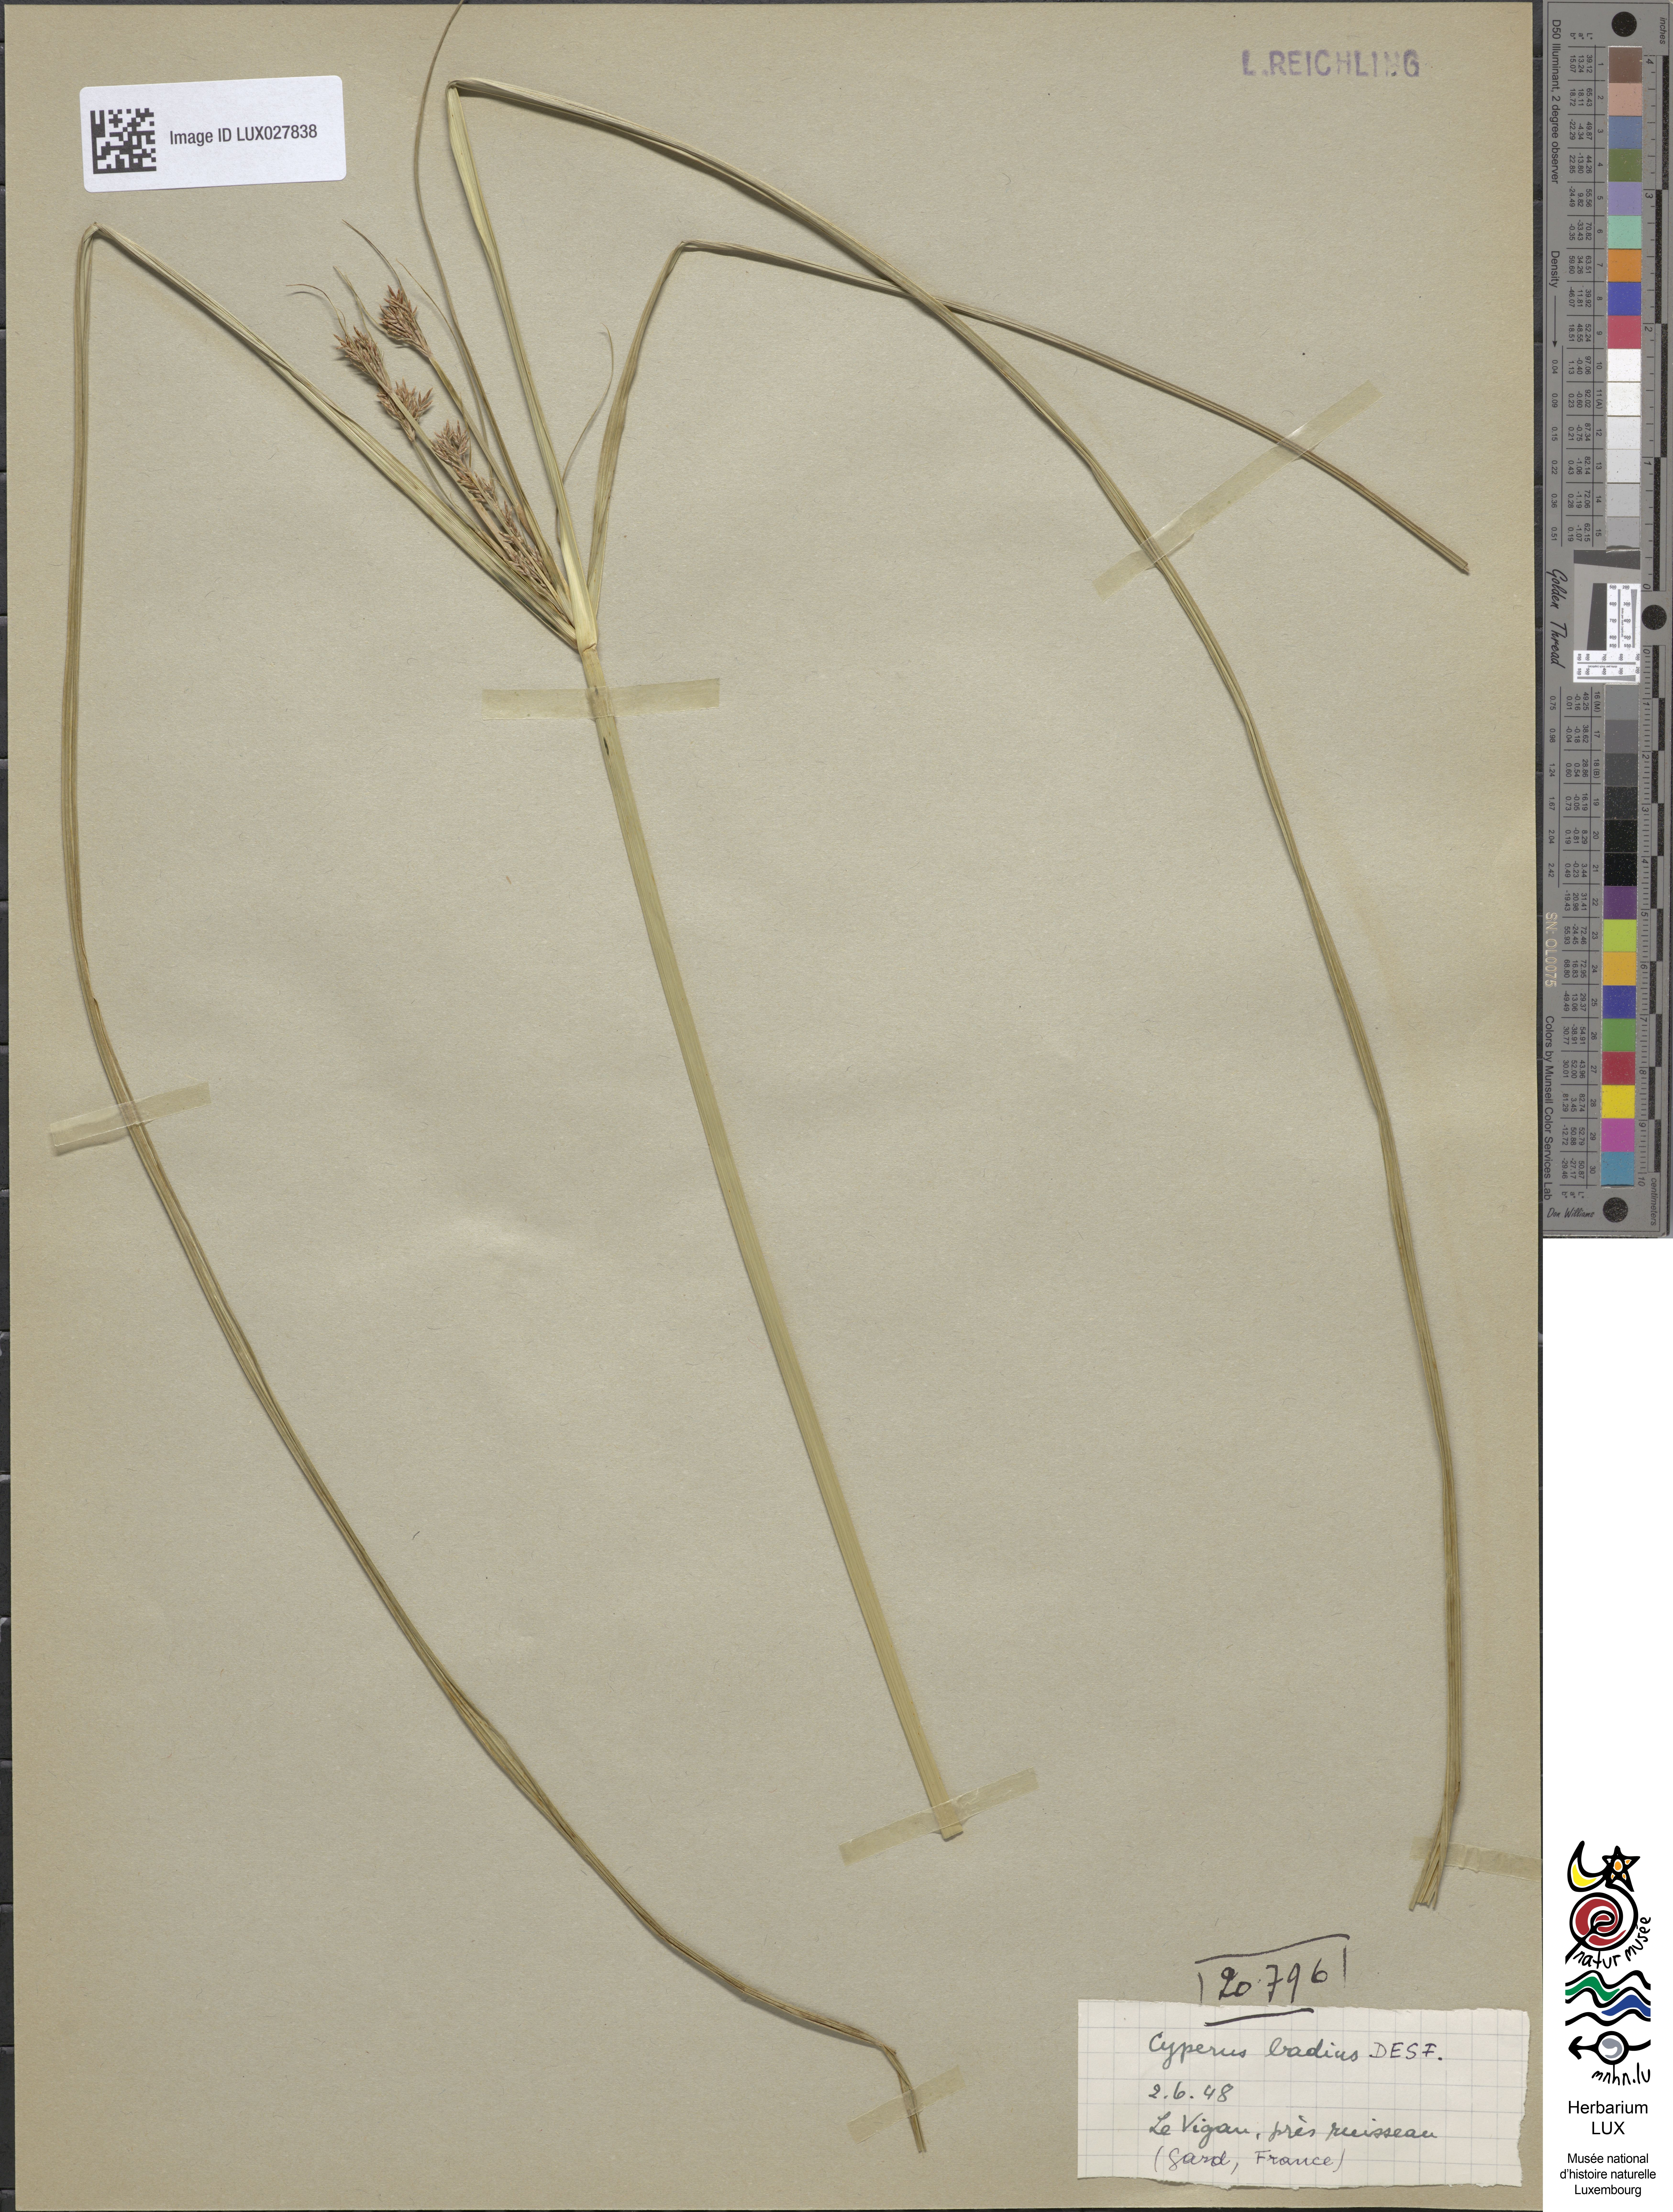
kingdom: Plantae
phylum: Tracheophyta
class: Liliopsida
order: Poales
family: Cyperaceae
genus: Cyperus
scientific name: Cyperus longus
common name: Galingale
